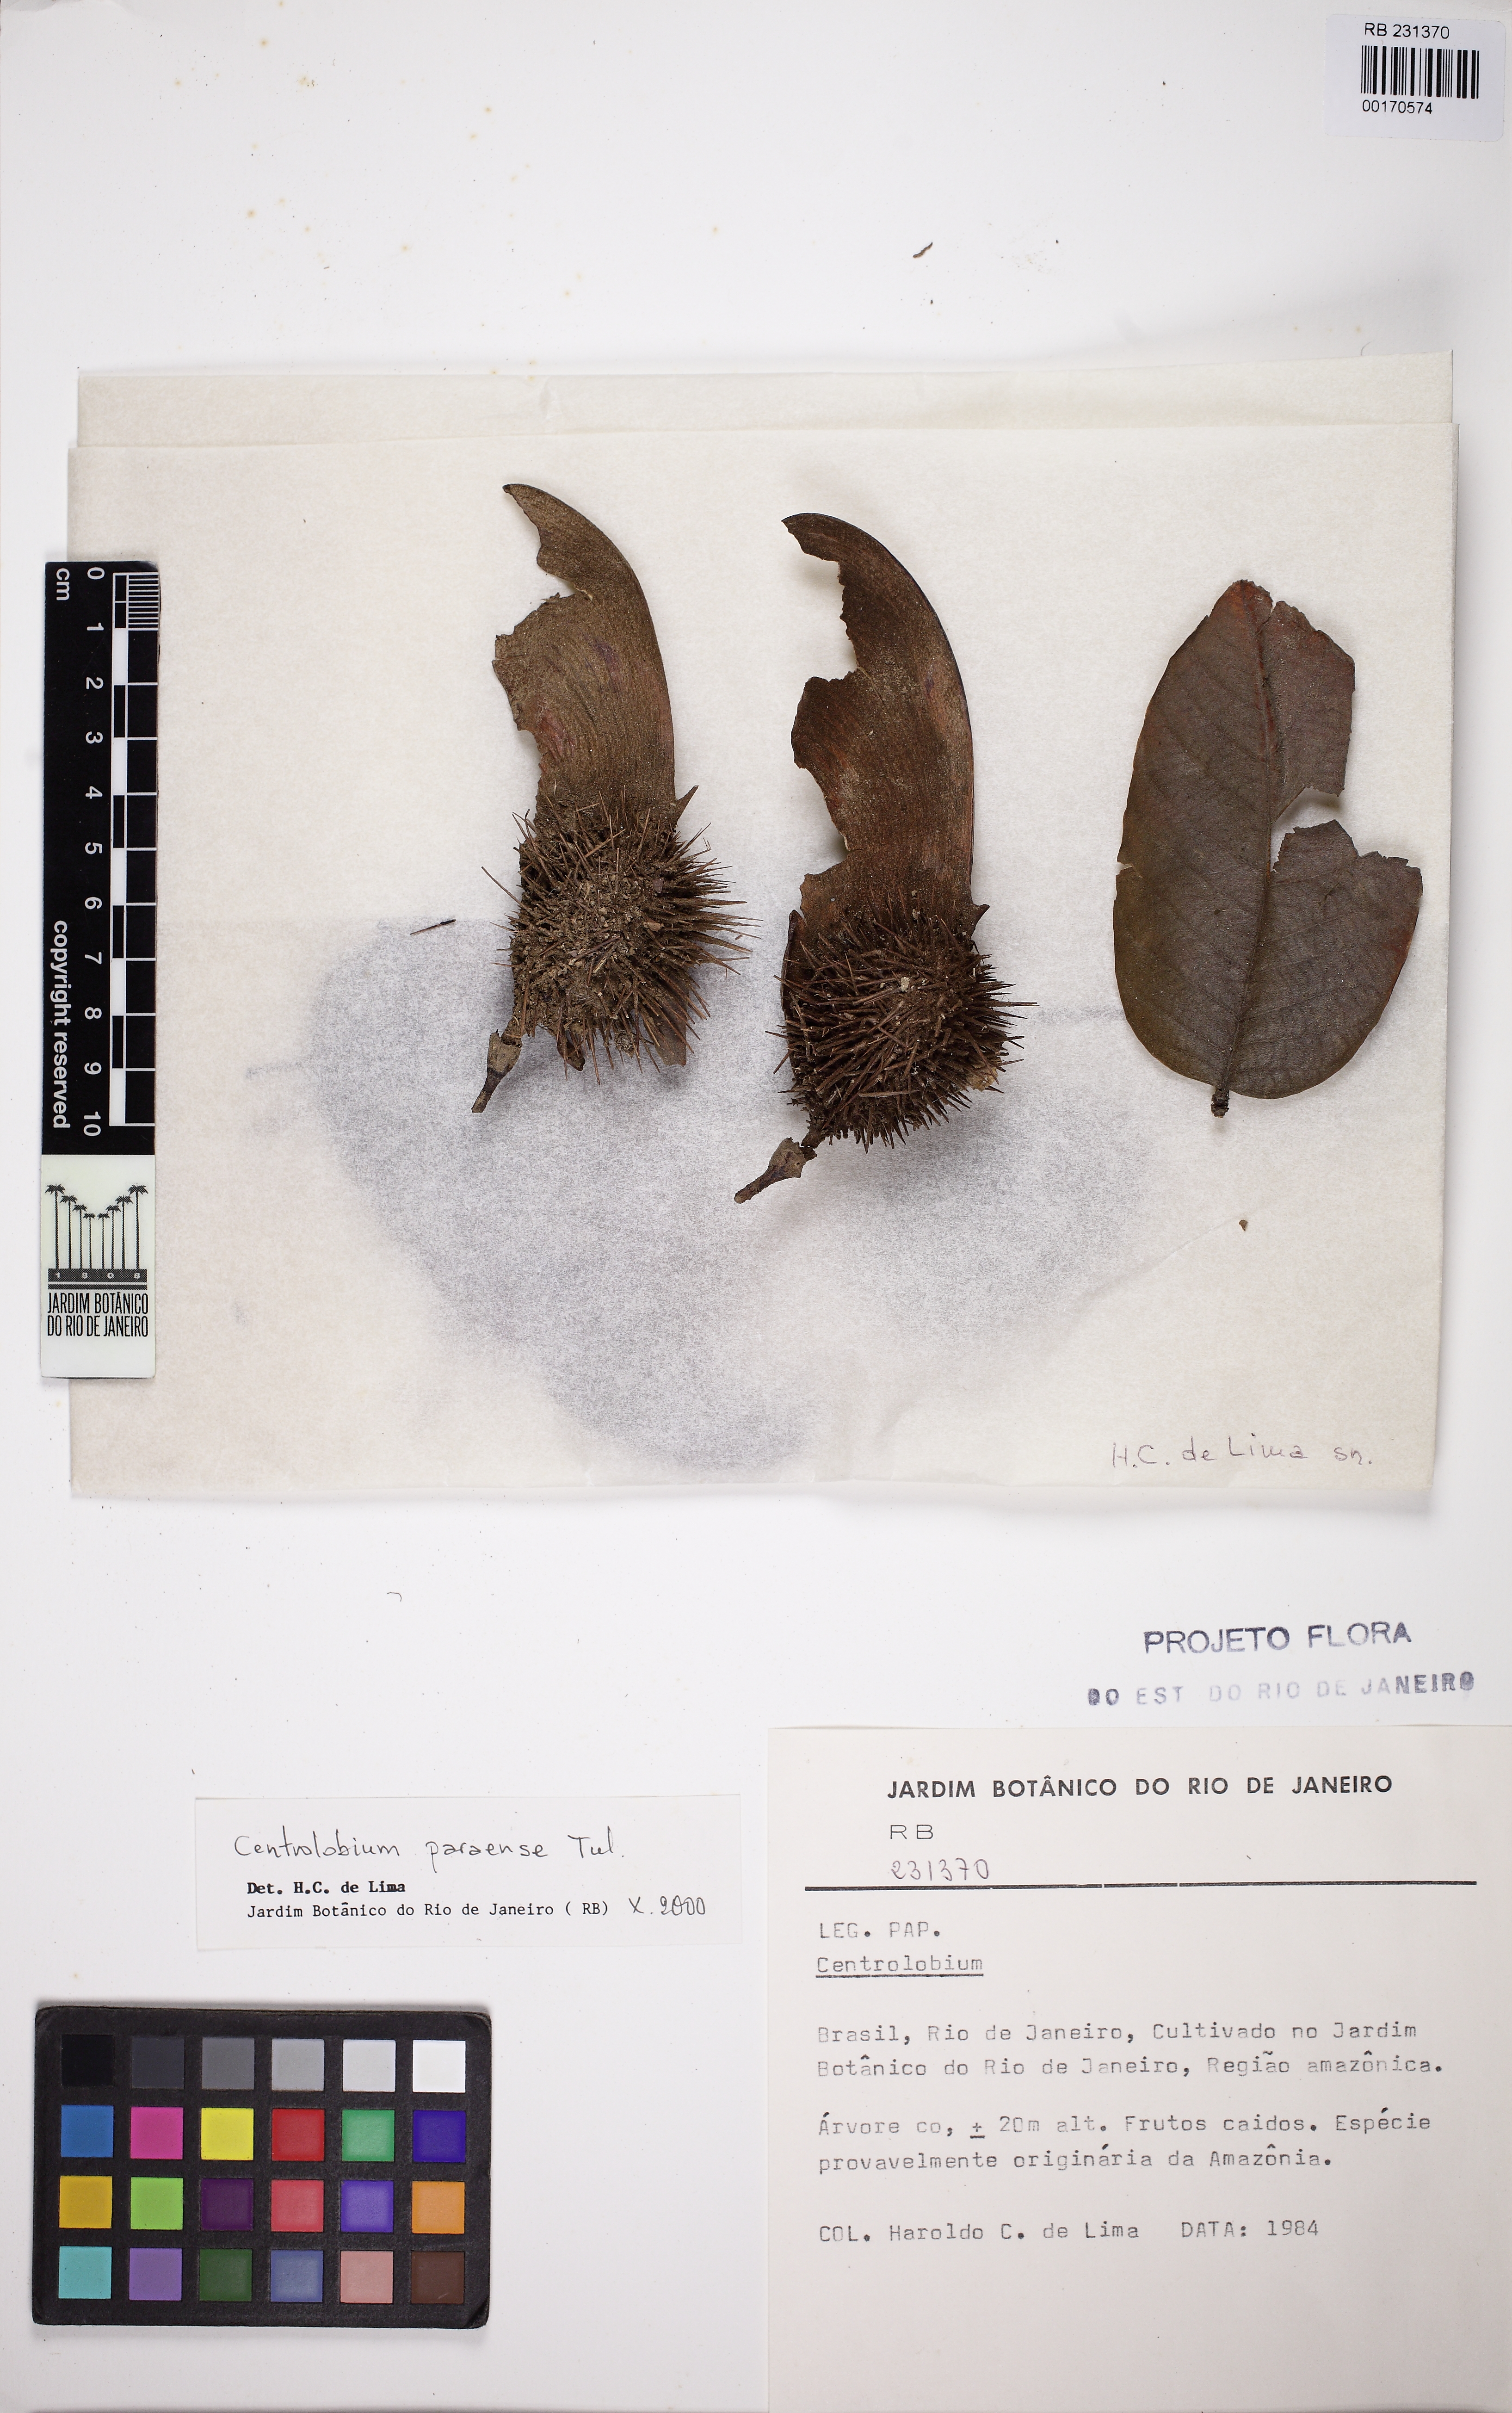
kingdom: Plantae
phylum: Tracheophyta
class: Magnoliopsida
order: Fabales
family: Fabaceae
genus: Centrolobium
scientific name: Centrolobium paraense
